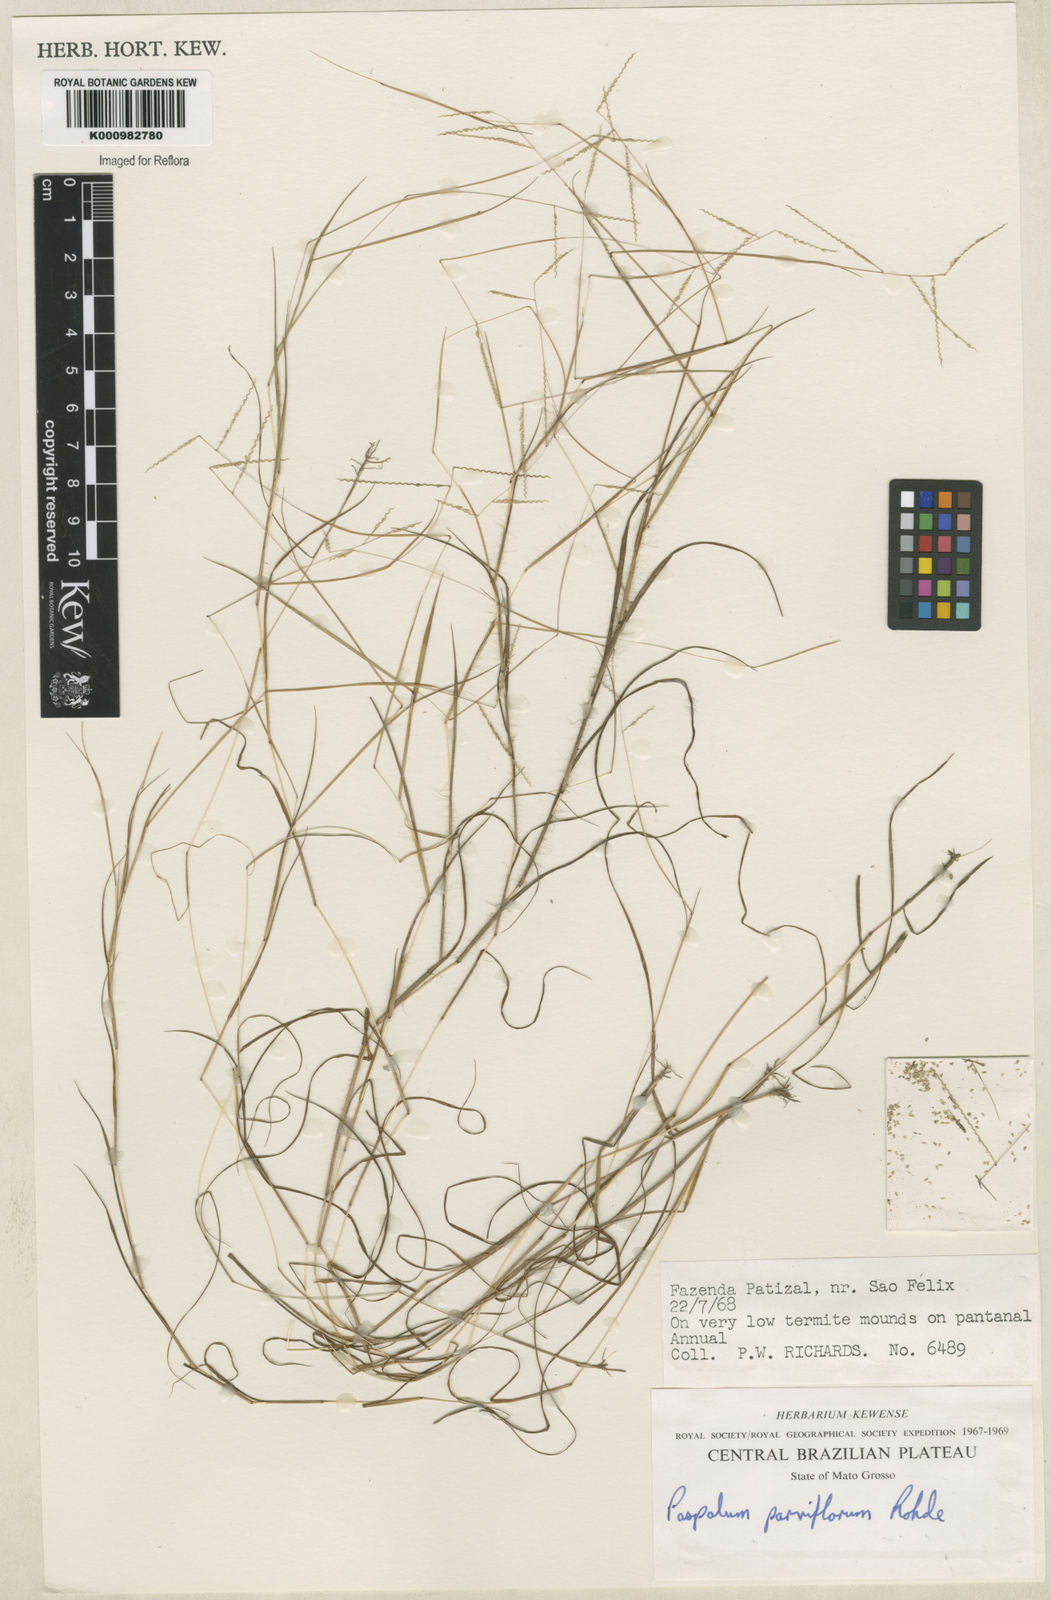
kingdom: Plantae
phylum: Tracheophyta
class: Liliopsida
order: Poales
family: Poaceae
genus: Paspalum
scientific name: Paspalum
